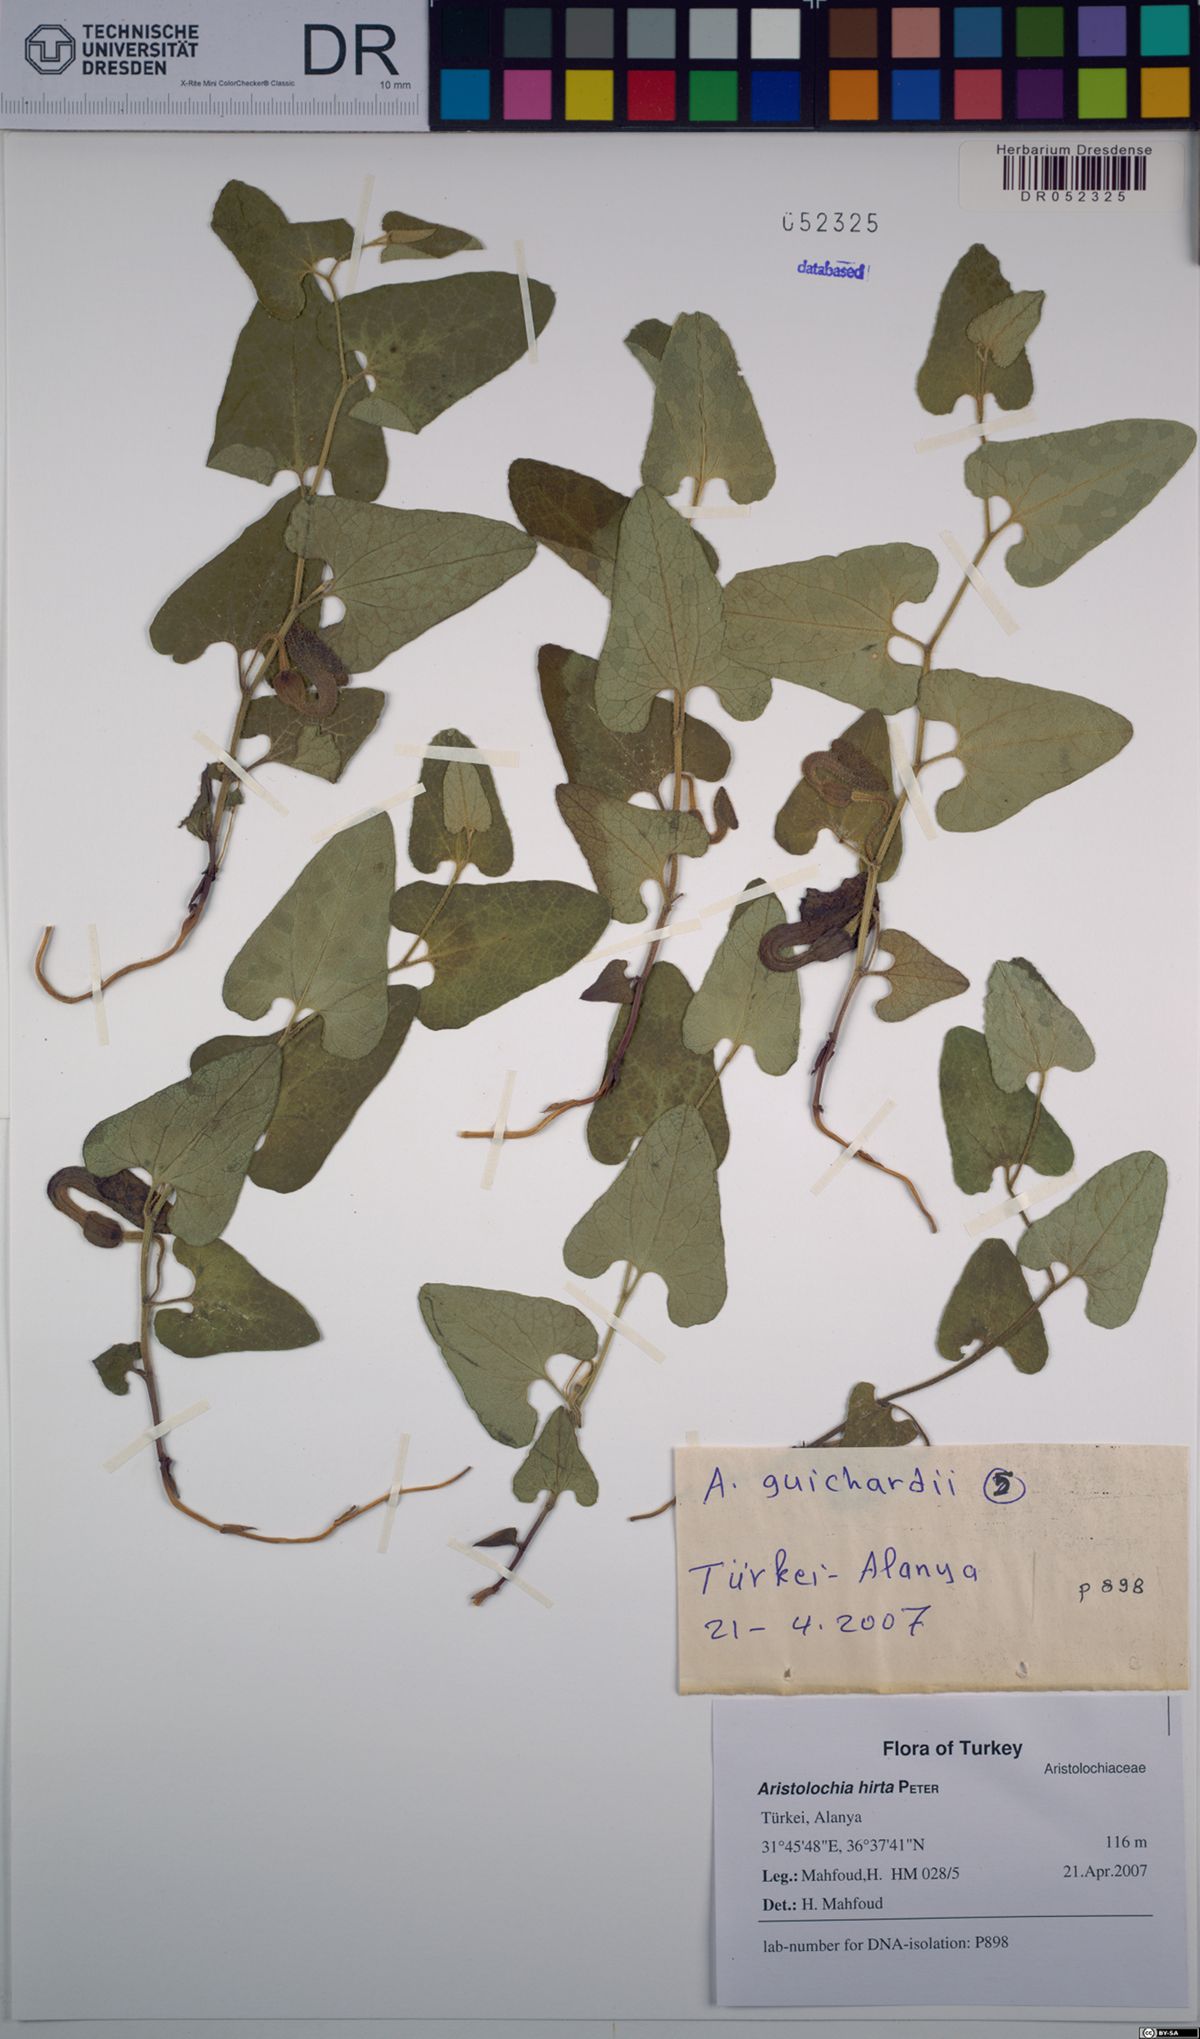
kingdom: Plantae
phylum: Tracheophyta
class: Magnoliopsida
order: Piperales
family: Aristolochiaceae
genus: Aristolochia
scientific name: Aristolochia hockii
